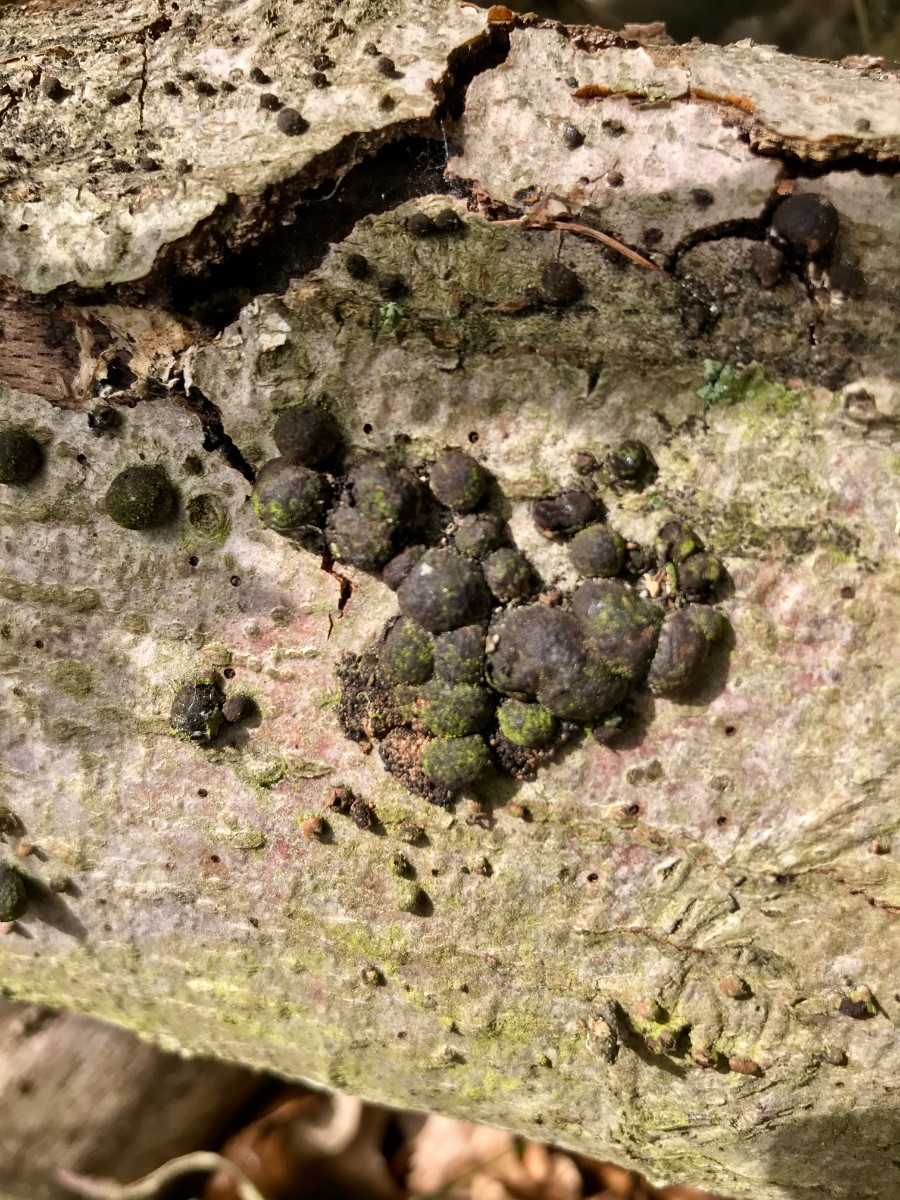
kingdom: Fungi
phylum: Ascomycota
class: Sordariomycetes
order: Xylariales
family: Hypoxylaceae
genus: Hypoxylon
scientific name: Hypoxylon fragiforme
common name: kuljordbær
